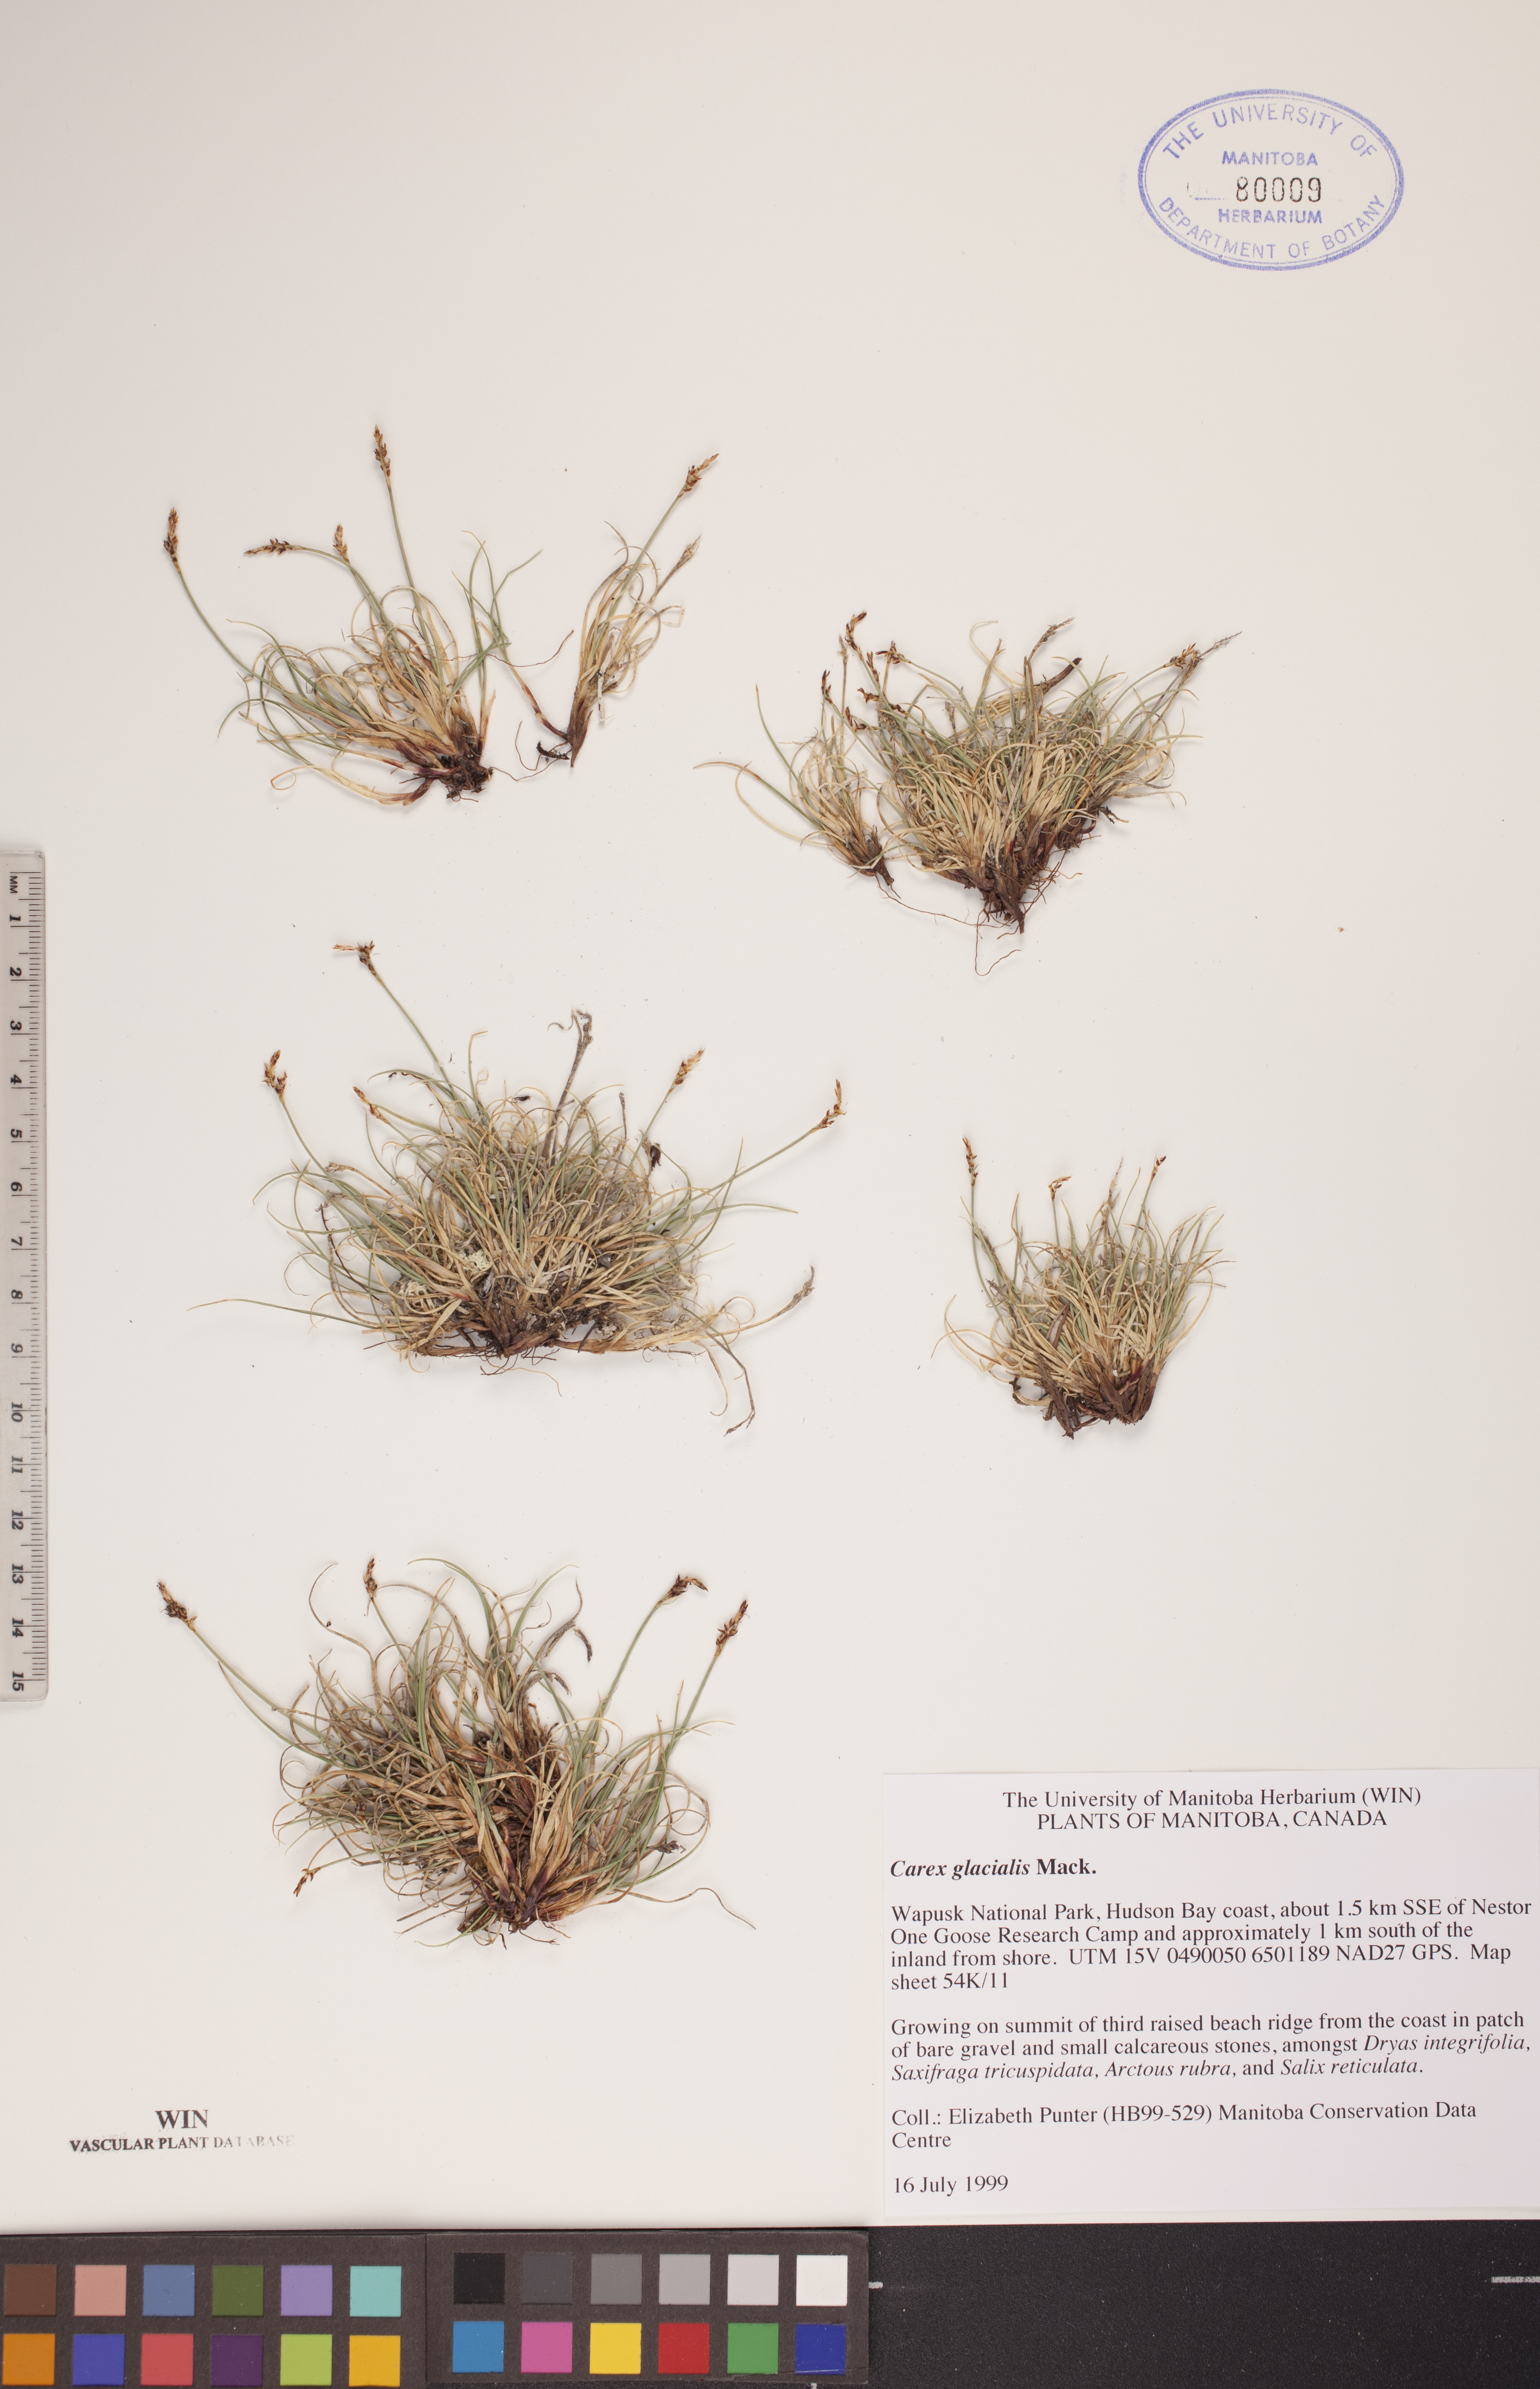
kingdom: Plantae
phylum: Tracheophyta
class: Liliopsida
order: Poales
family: Cyperaceae
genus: Carex
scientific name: Carex glacialis
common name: Newfoundland sedge
